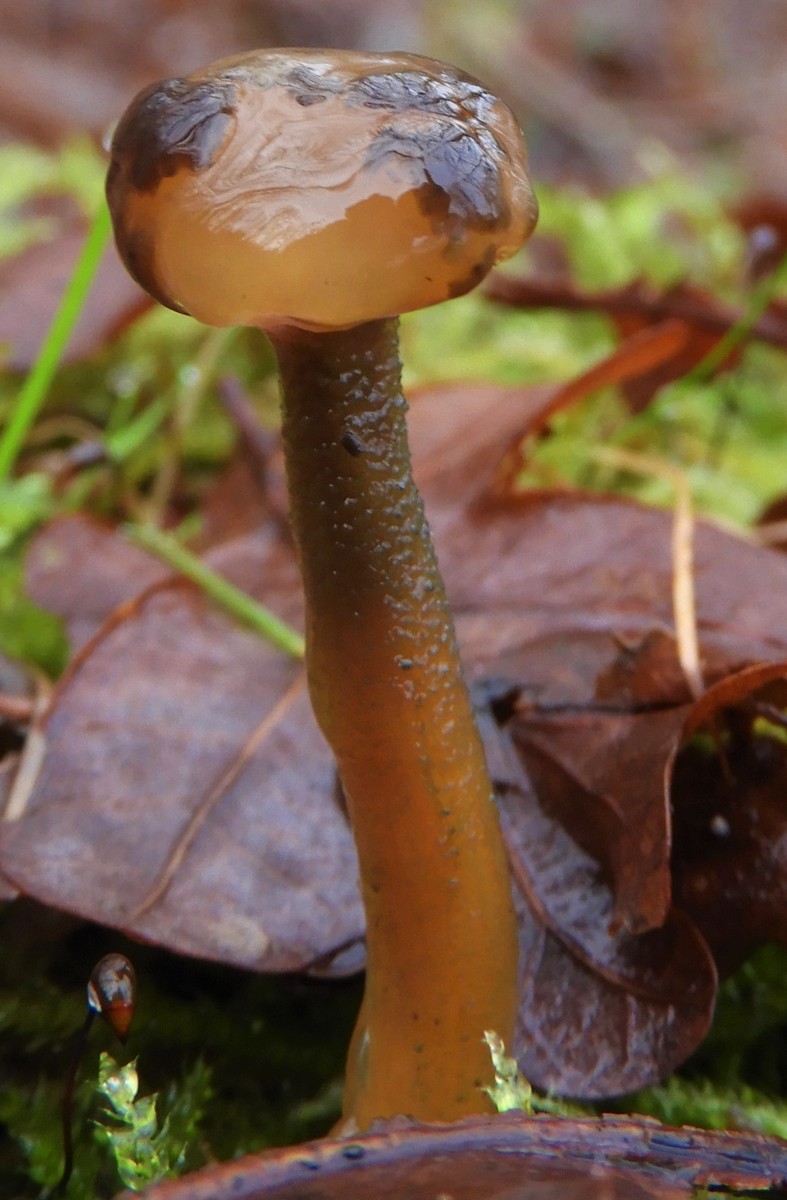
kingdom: Fungi
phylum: Ascomycota
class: Leotiomycetes
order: Leotiales
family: Leotiaceae
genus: Leotia
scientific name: Leotia lubrica
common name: ravsvamp
